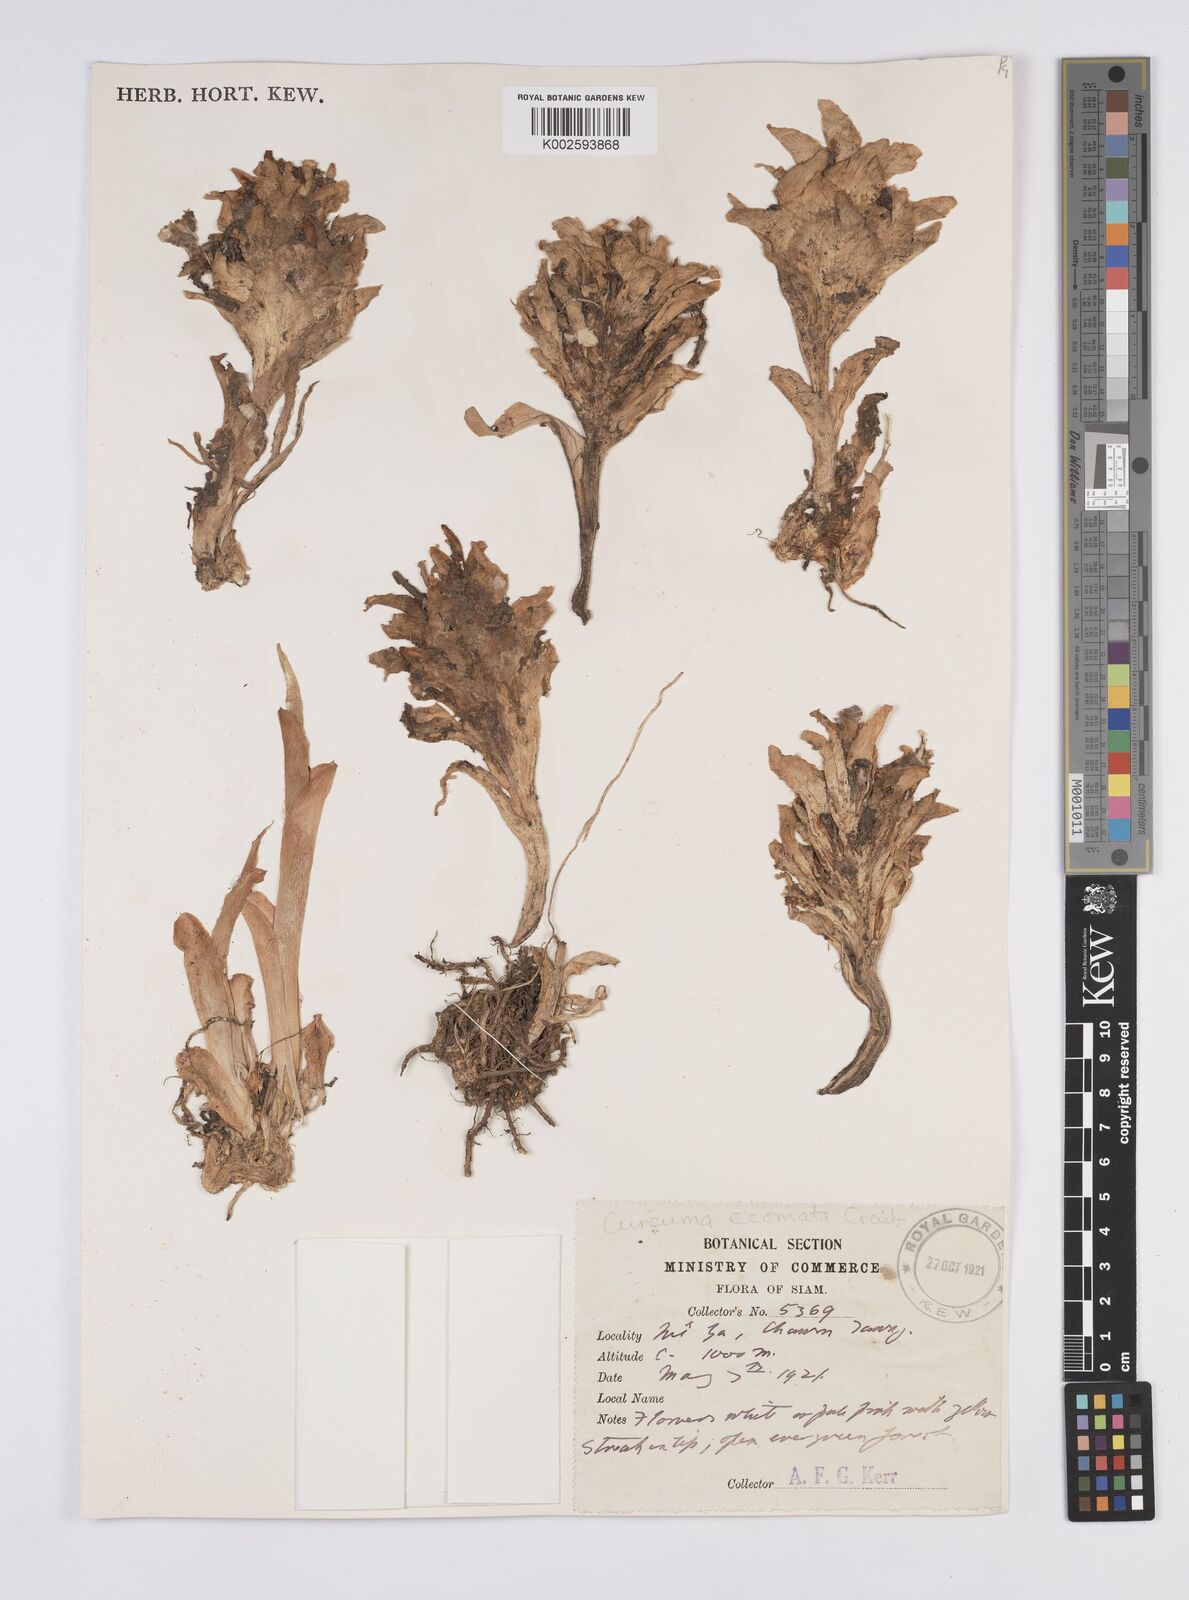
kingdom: Plantae
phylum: Tracheophyta
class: Liliopsida
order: Zingiberales
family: Zingiberaceae
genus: Curcuma
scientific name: Curcuma colorata
